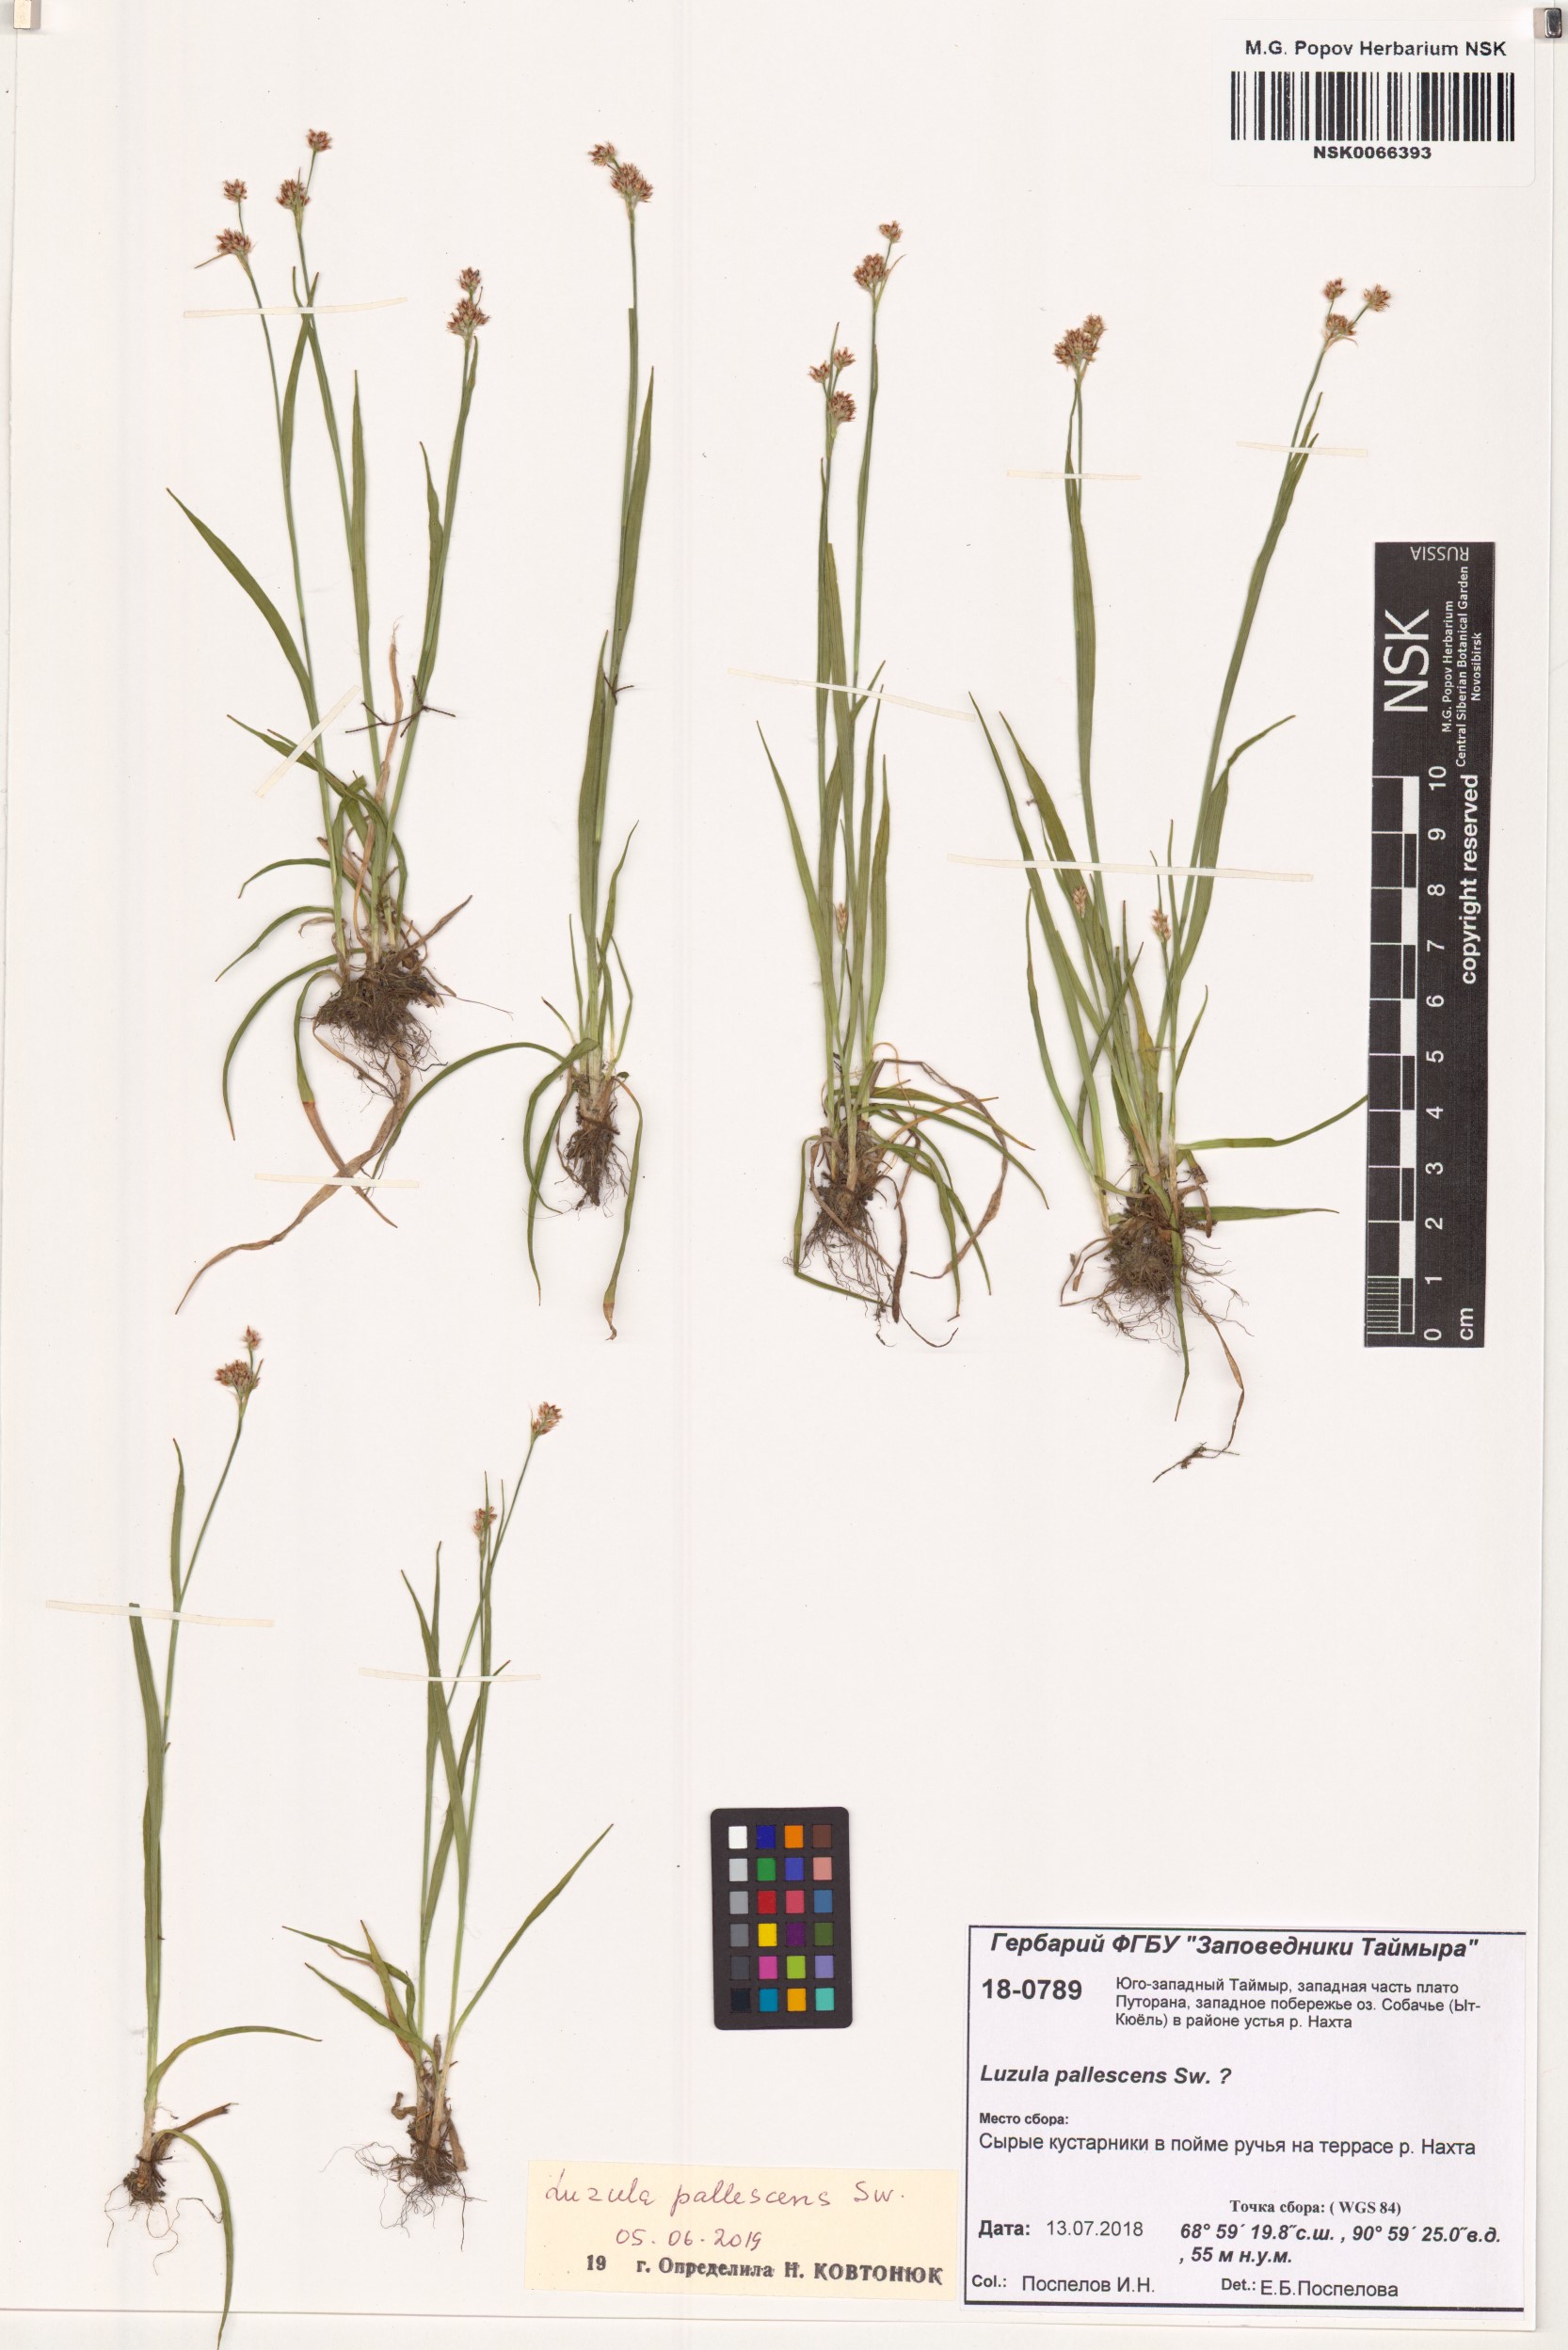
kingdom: Plantae
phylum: Tracheophyta
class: Liliopsida
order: Poales
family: Juncaceae
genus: Luzula
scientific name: Luzula pallescens
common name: Fen wood-rush
